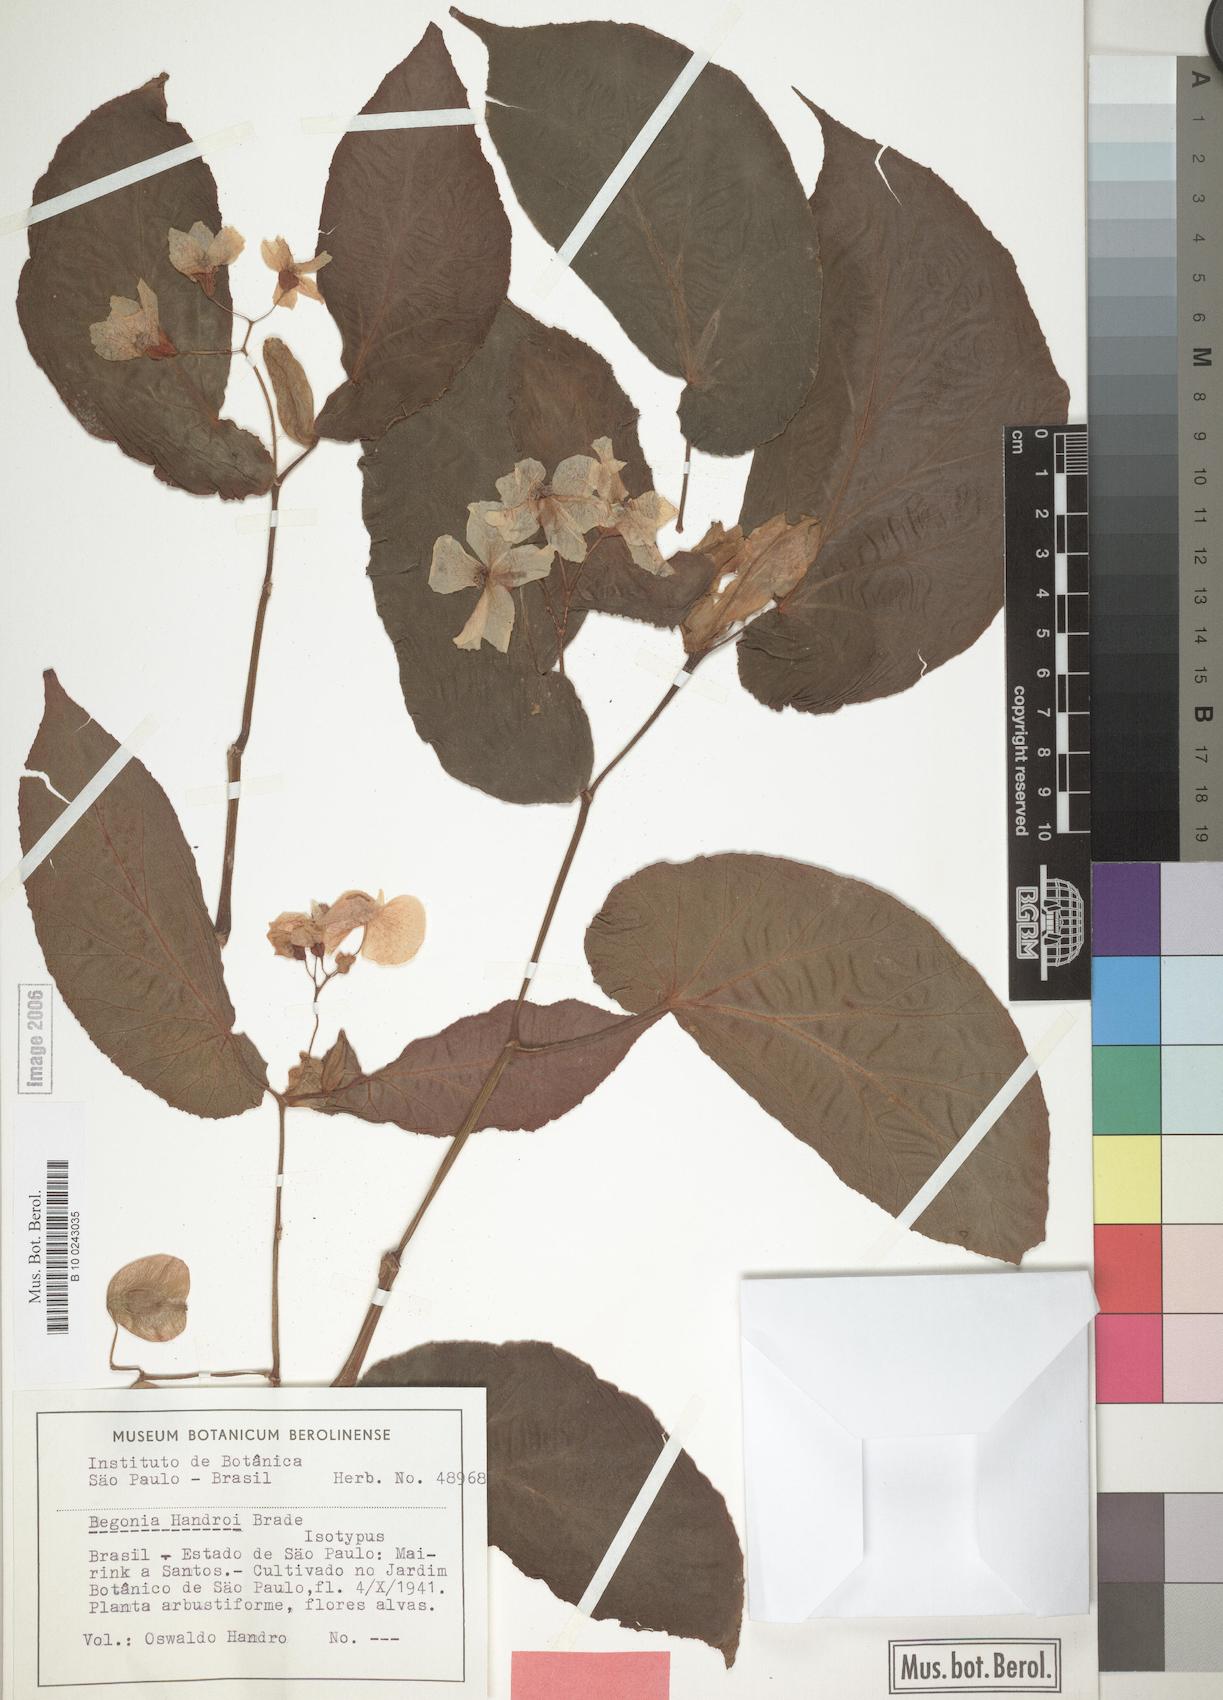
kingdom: Plantae
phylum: Tracheophyta
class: Magnoliopsida
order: Cucurbitales
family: Begoniaceae
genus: Begonia
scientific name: Begonia handroi
